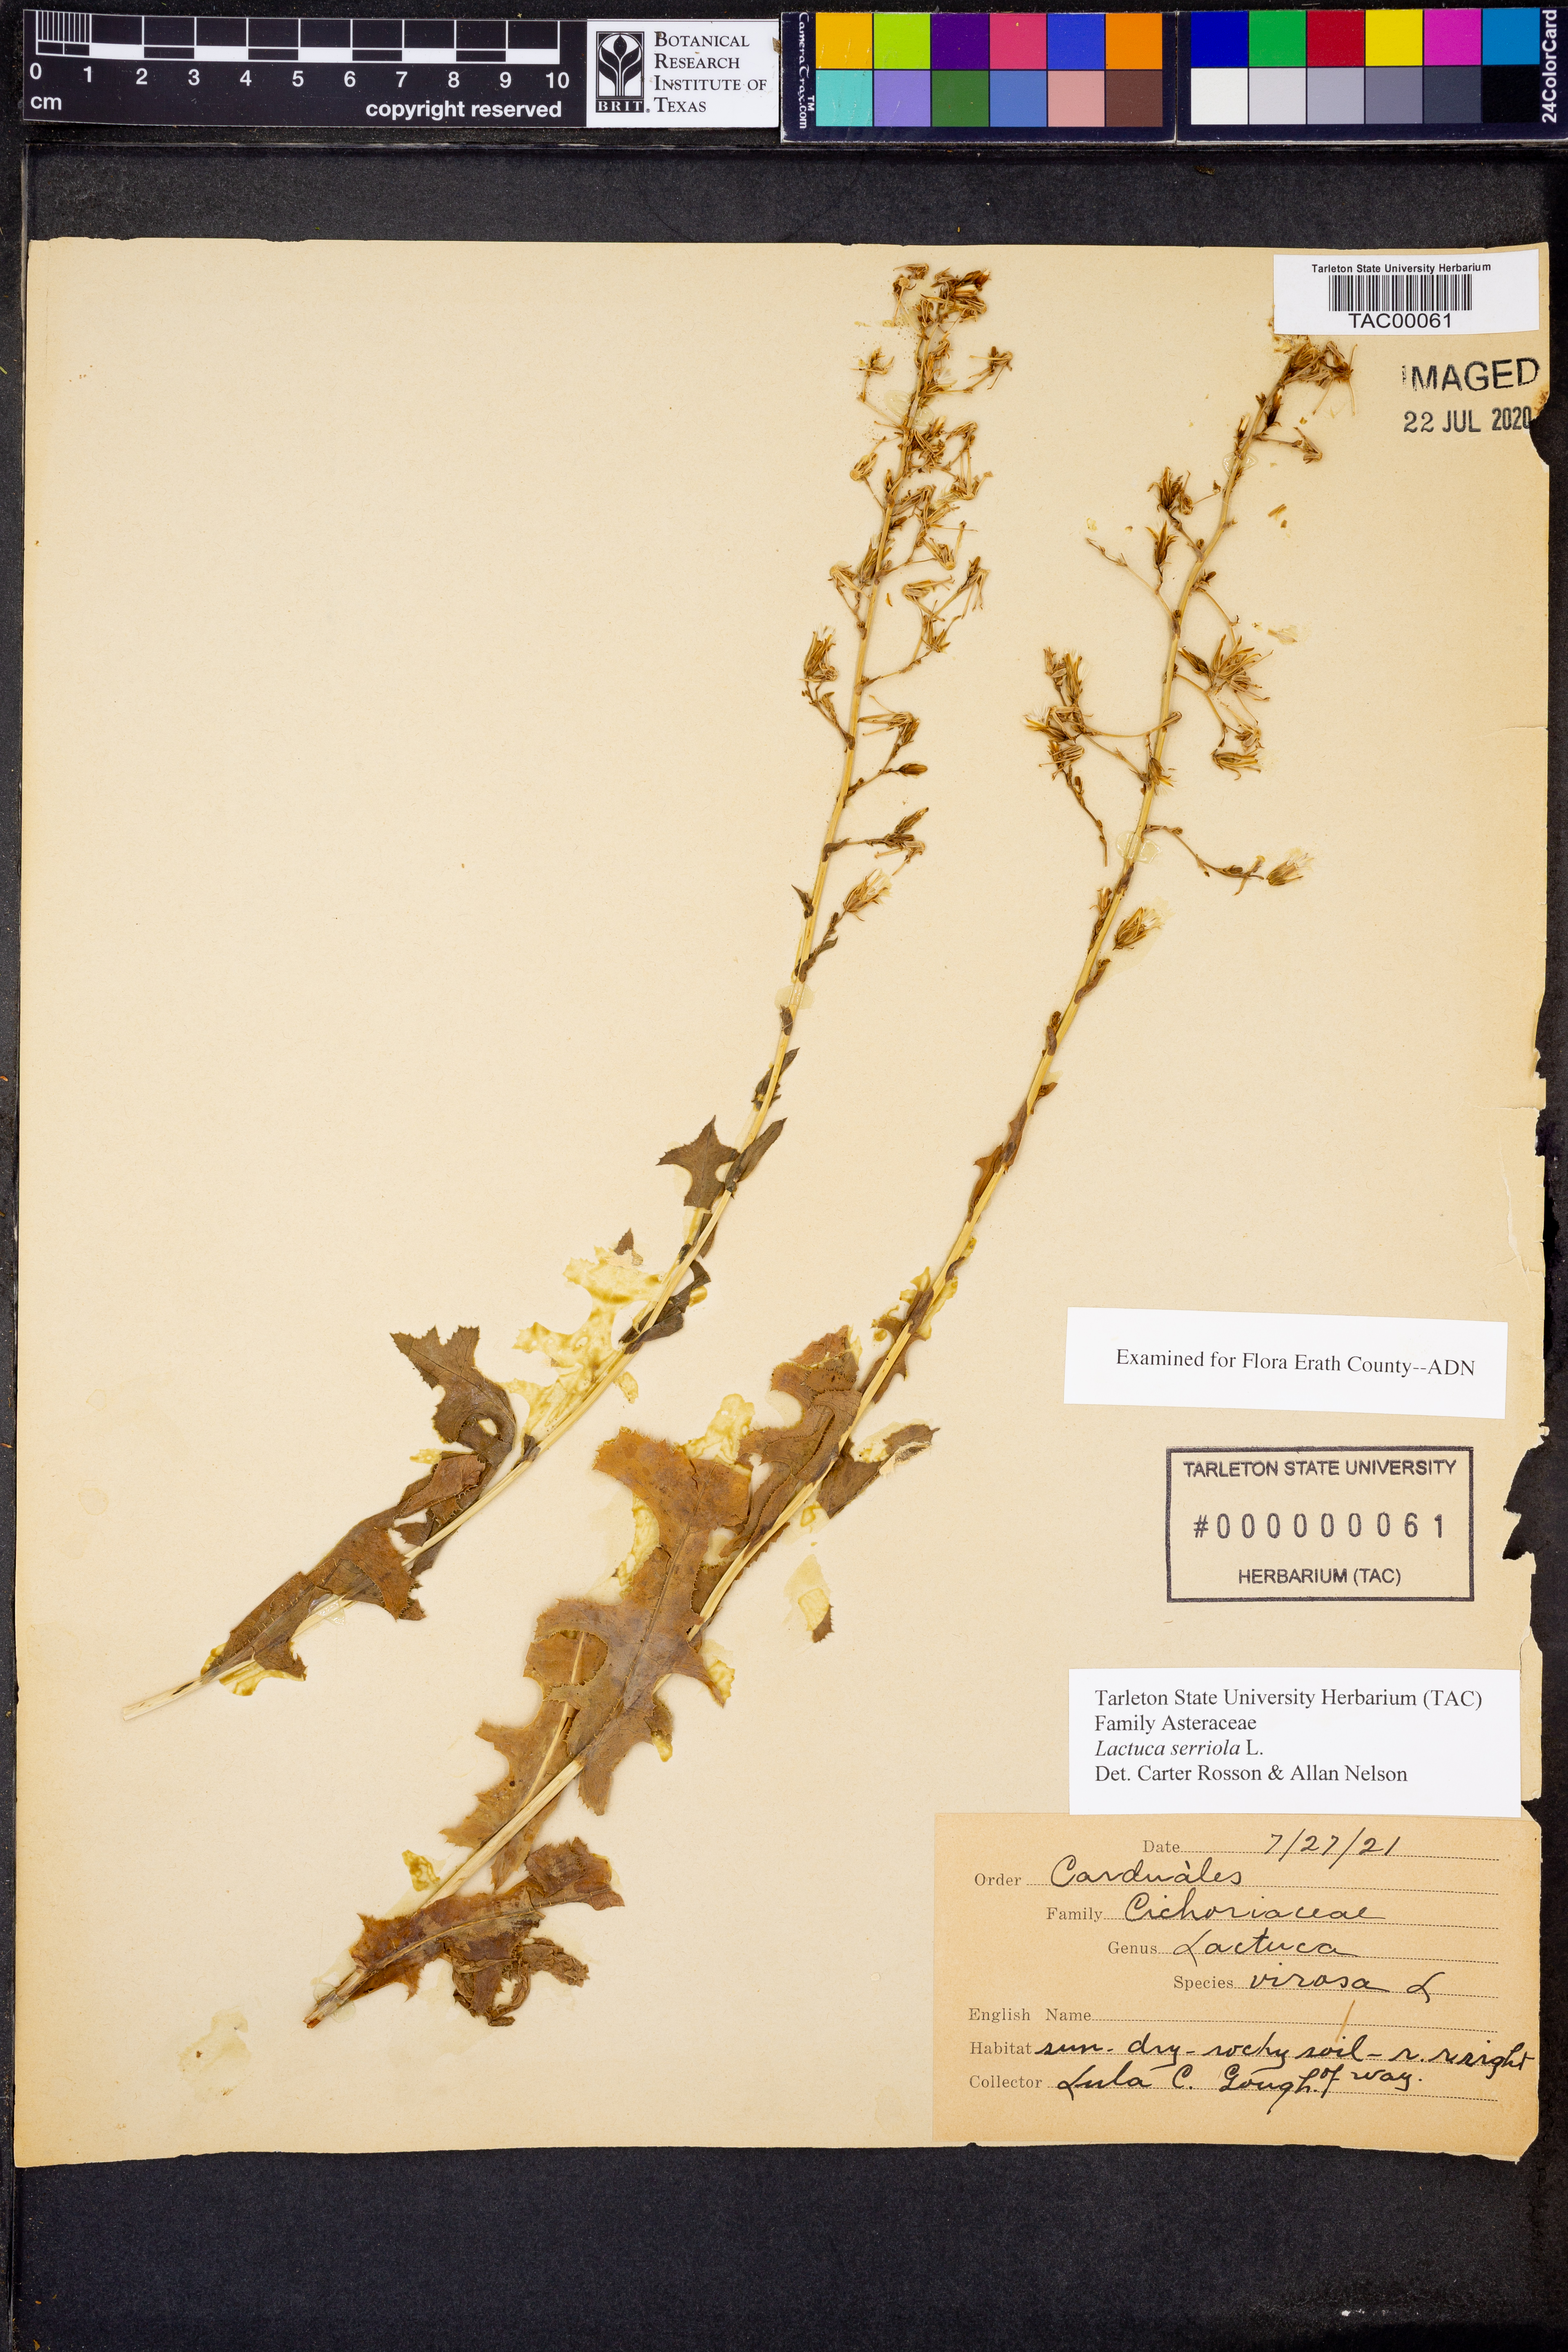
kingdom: Plantae
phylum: Tracheophyta
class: Magnoliopsida
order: Asterales
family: Asteraceae
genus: Lactuca
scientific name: Lactuca serriola
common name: Prickly lettuce
